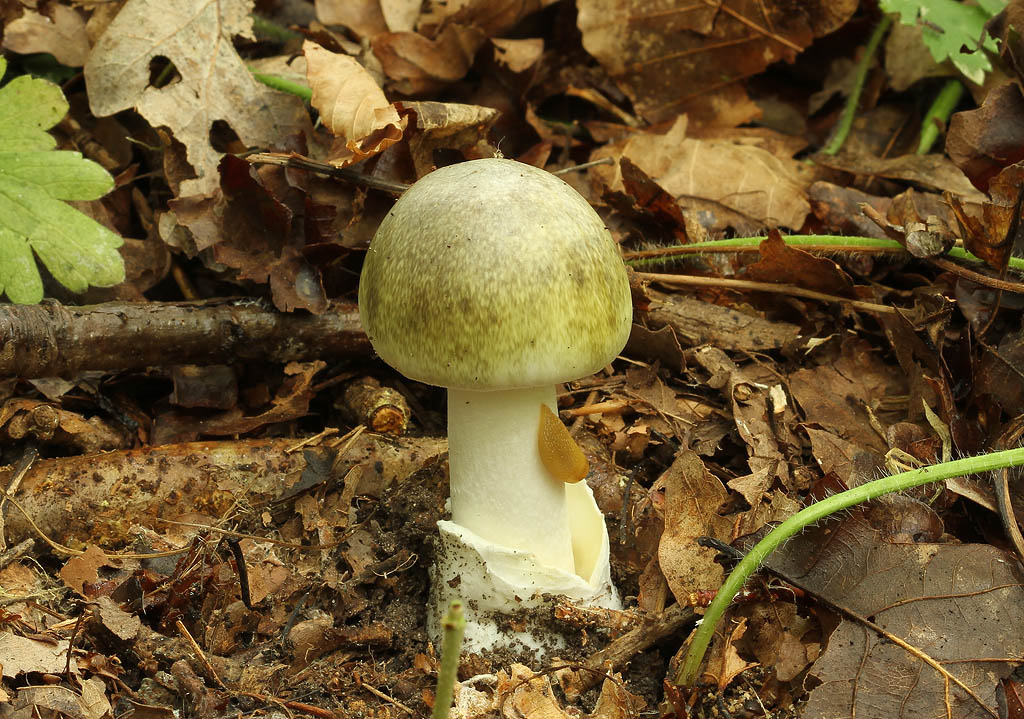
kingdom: Fungi
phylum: Basidiomycota
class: Agaricomycetes
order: Agaricales
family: Amanitaceae
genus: Amanita
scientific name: Amanita phalloides
